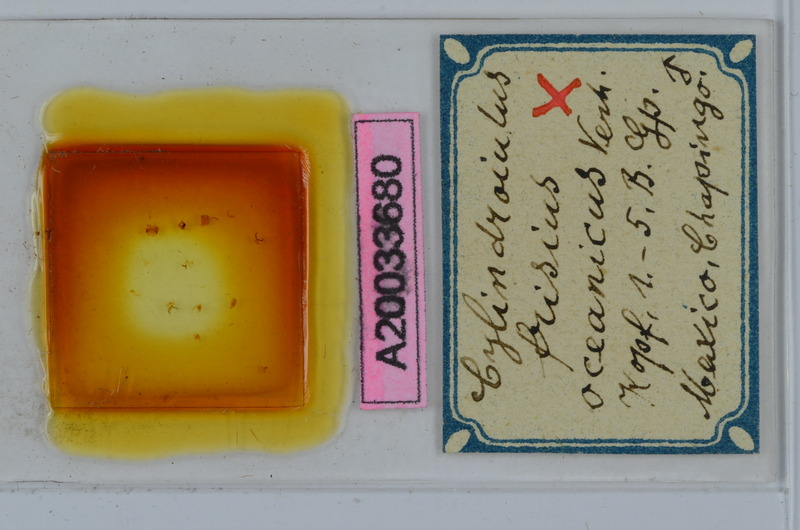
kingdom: Animalia
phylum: Arthropoda
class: Diplopoda
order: Julida
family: Julidae
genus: Cylindroiulus
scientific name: Cylindroiulus frisius
